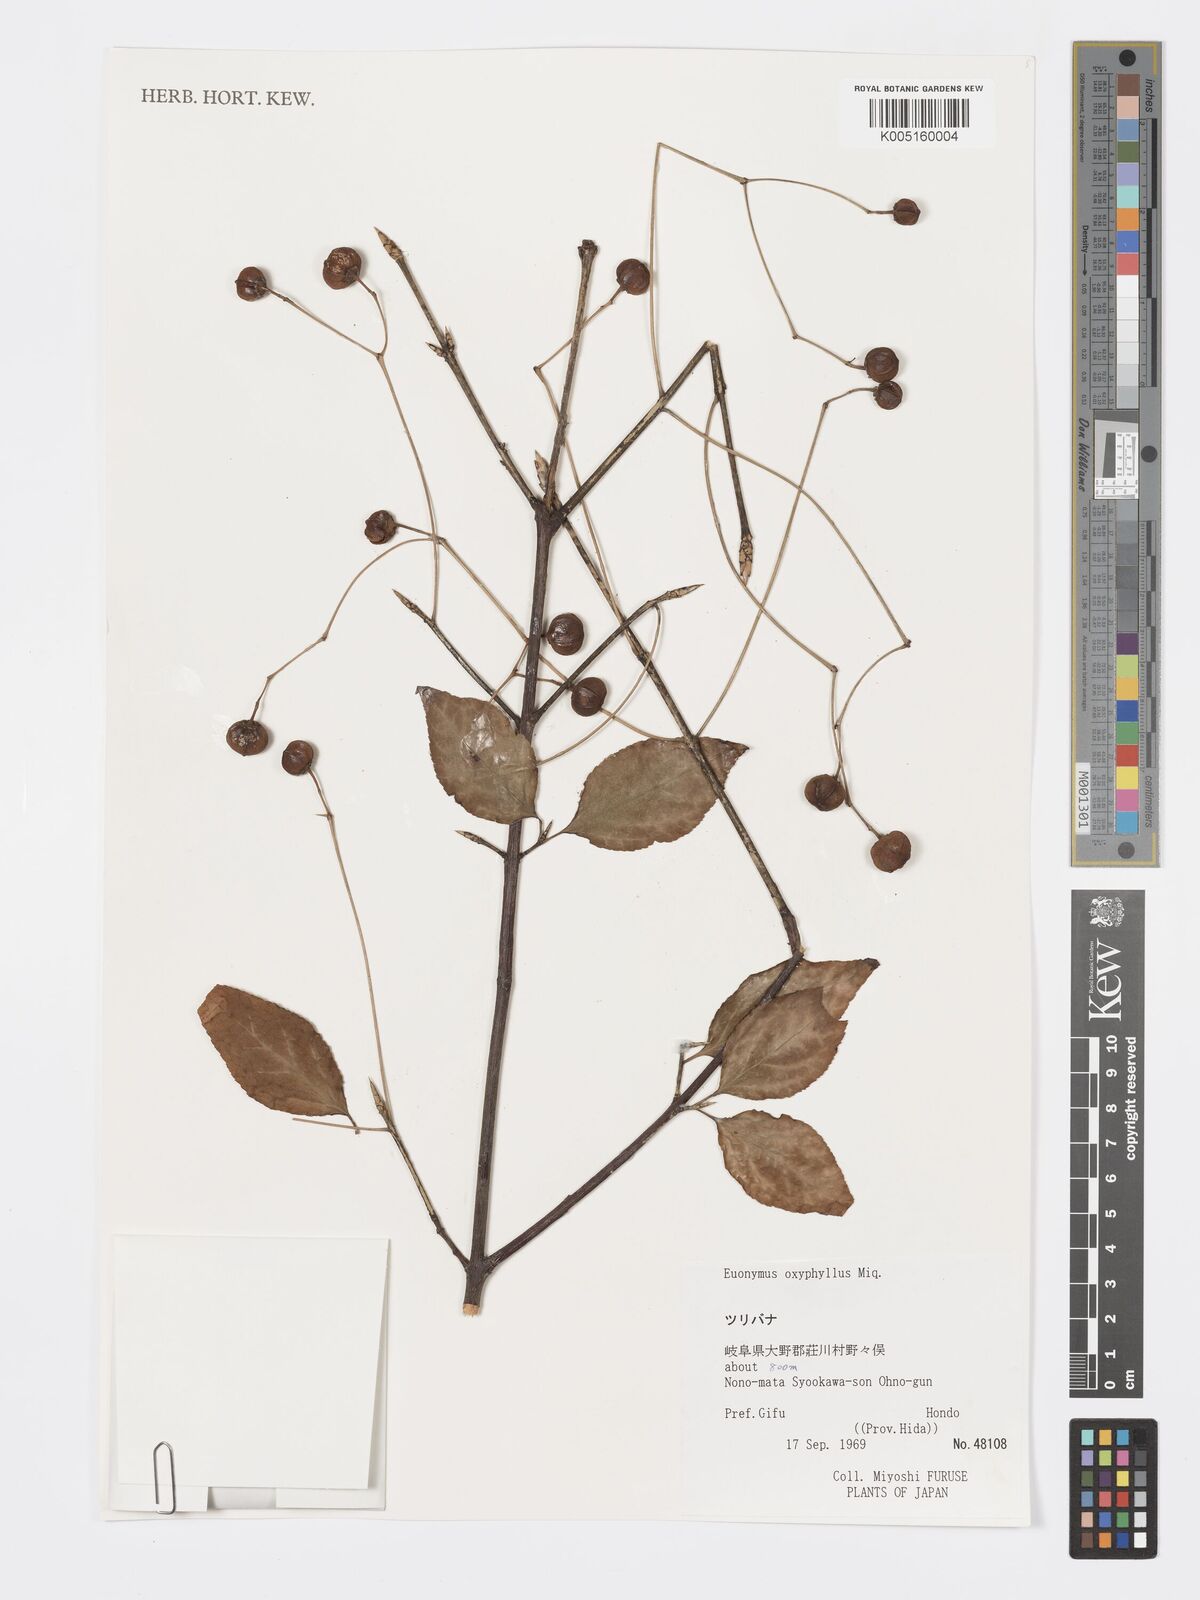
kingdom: Plantae
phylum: Tracheophyta
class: Magnoliopsida
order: Celastrales
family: Celastraceae
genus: Euonymus
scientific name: Euonymus oxyphyllus
